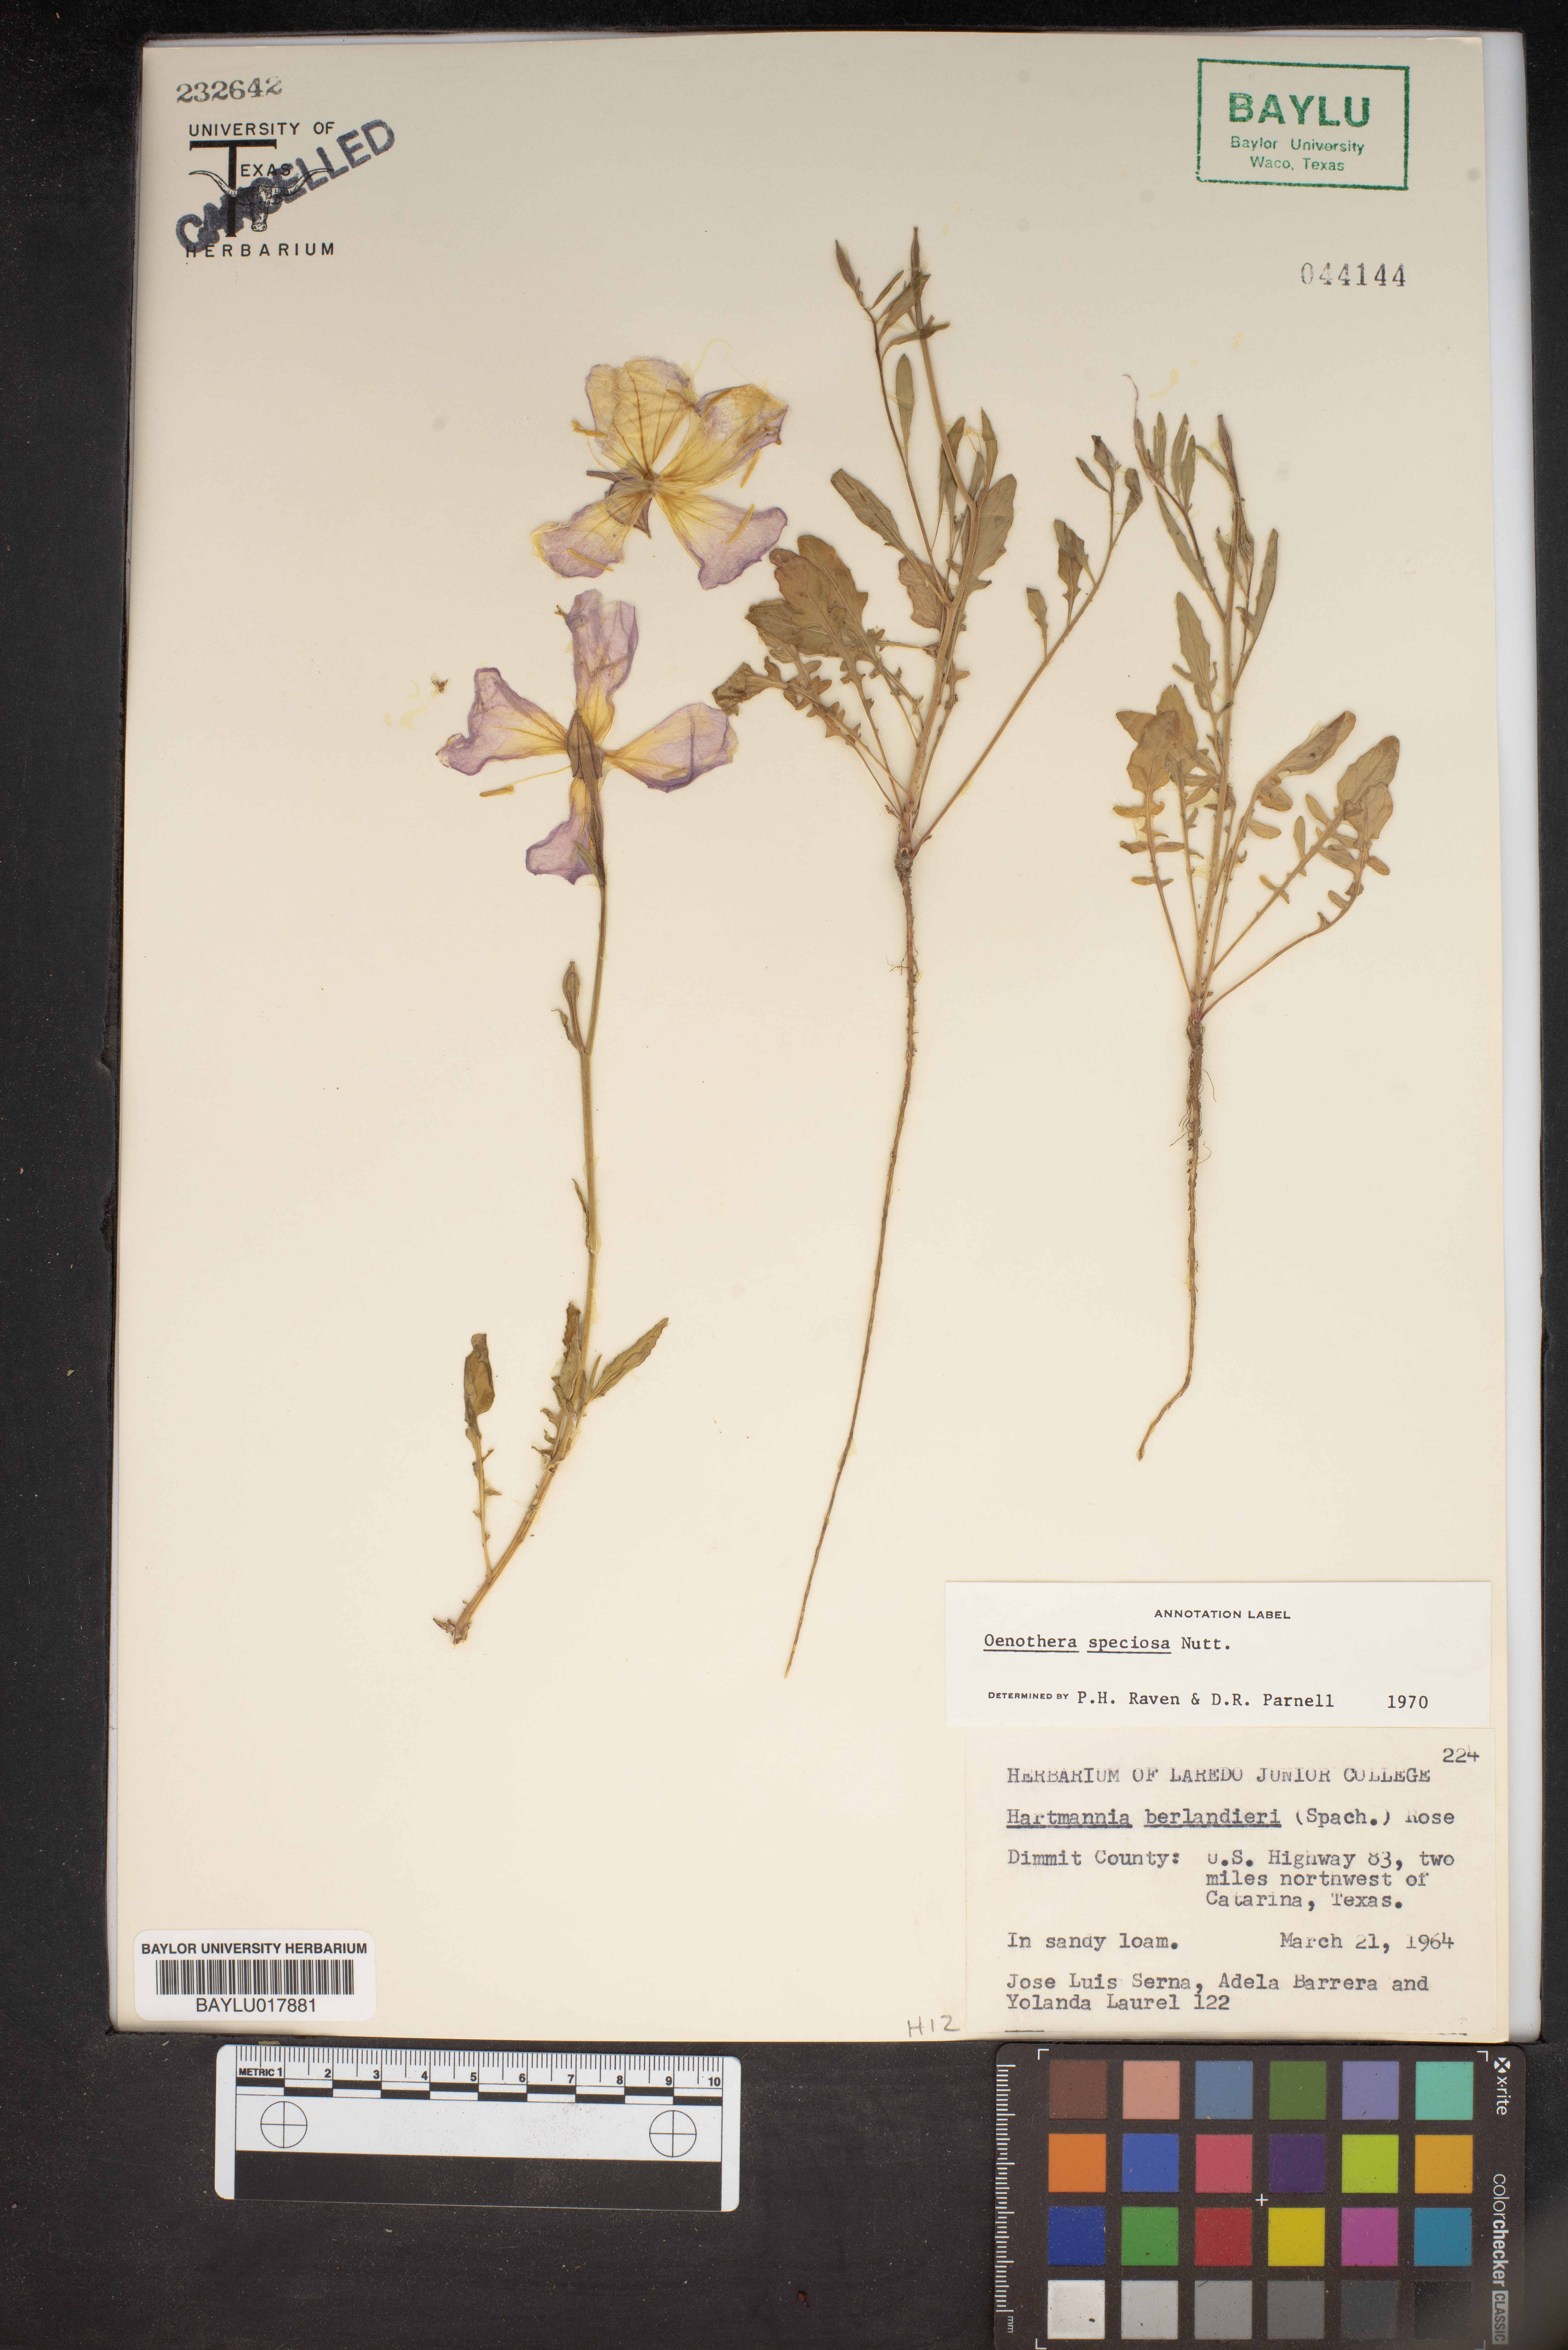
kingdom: Plantae
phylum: Tracheophyta
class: Magnoliopsida
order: Myrtales
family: Onagraceae
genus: Oenothera
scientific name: Oenothera
